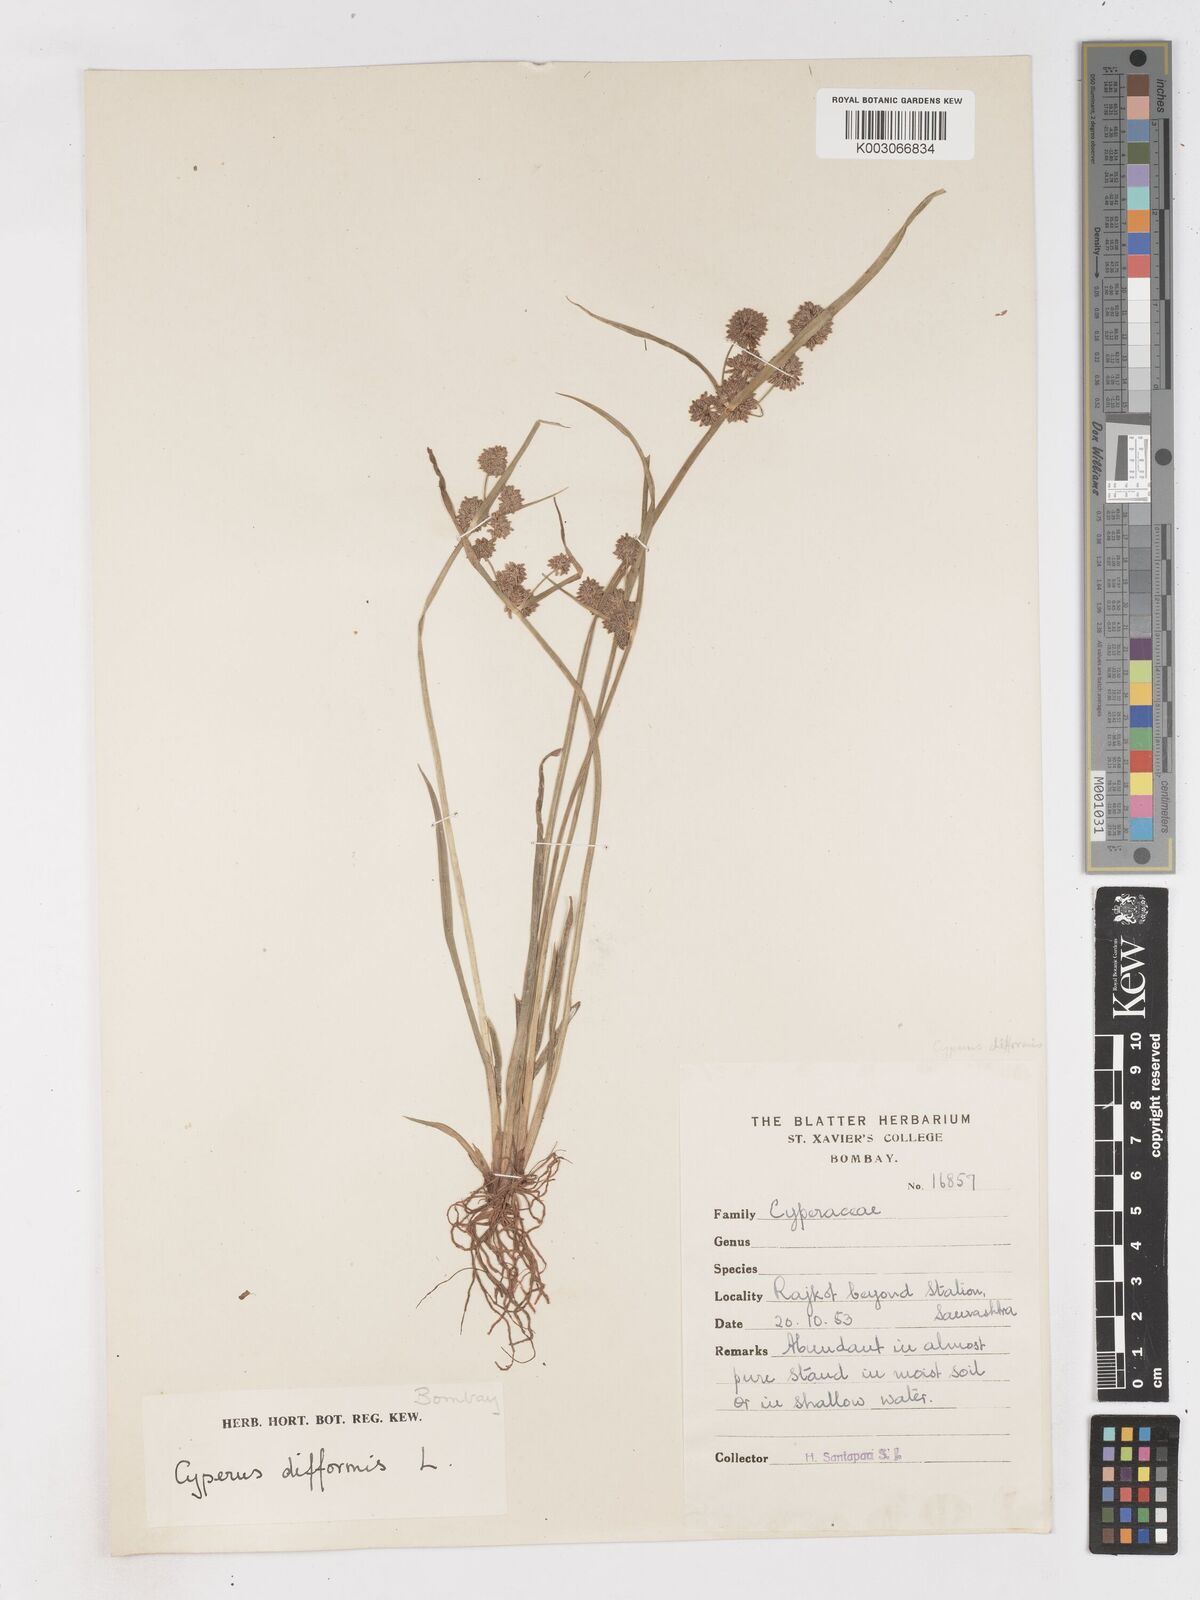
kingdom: Plantae
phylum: Tracheophyta
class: Liliopsida
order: Poales
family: Cyperaceae
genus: Cyperus
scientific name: Cyperus difformis
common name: Variable flatsedge
